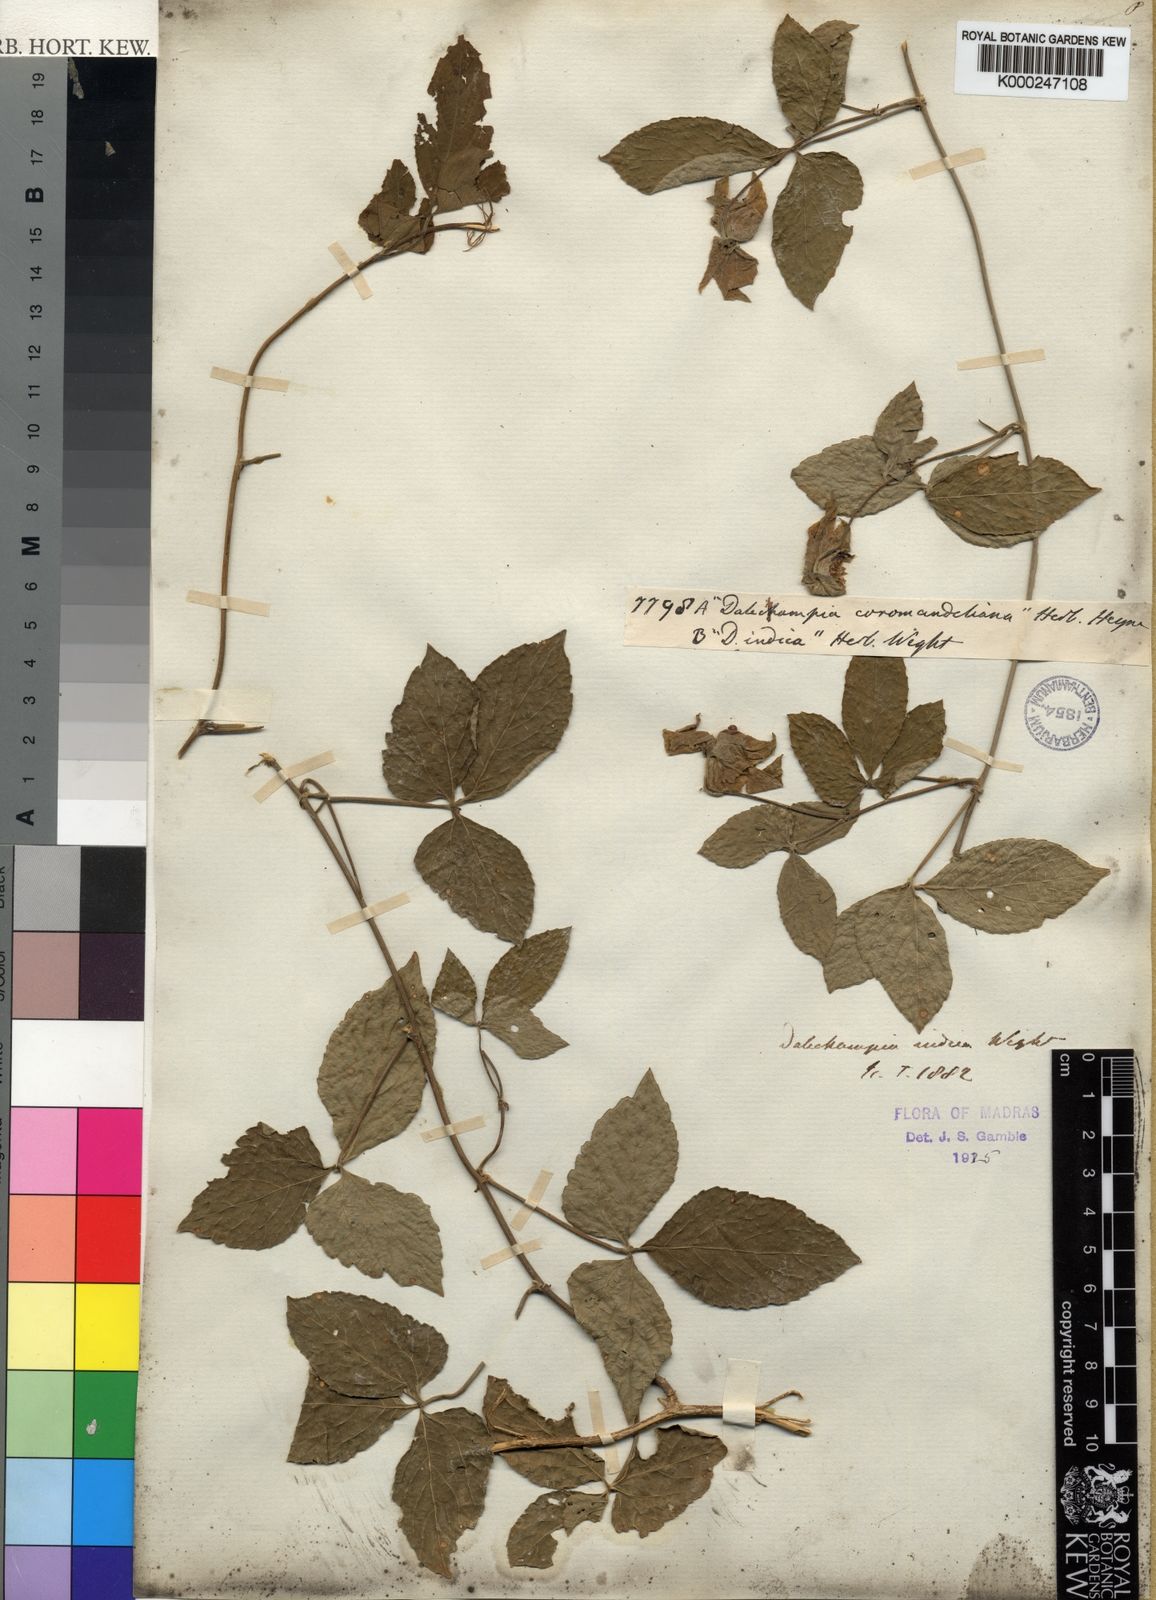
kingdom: Plantae
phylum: Tracheophyta
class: Magnoliopsida
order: Malpighiales
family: Euphorbiaceae
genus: Dalechampia
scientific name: Dalechampia indica
